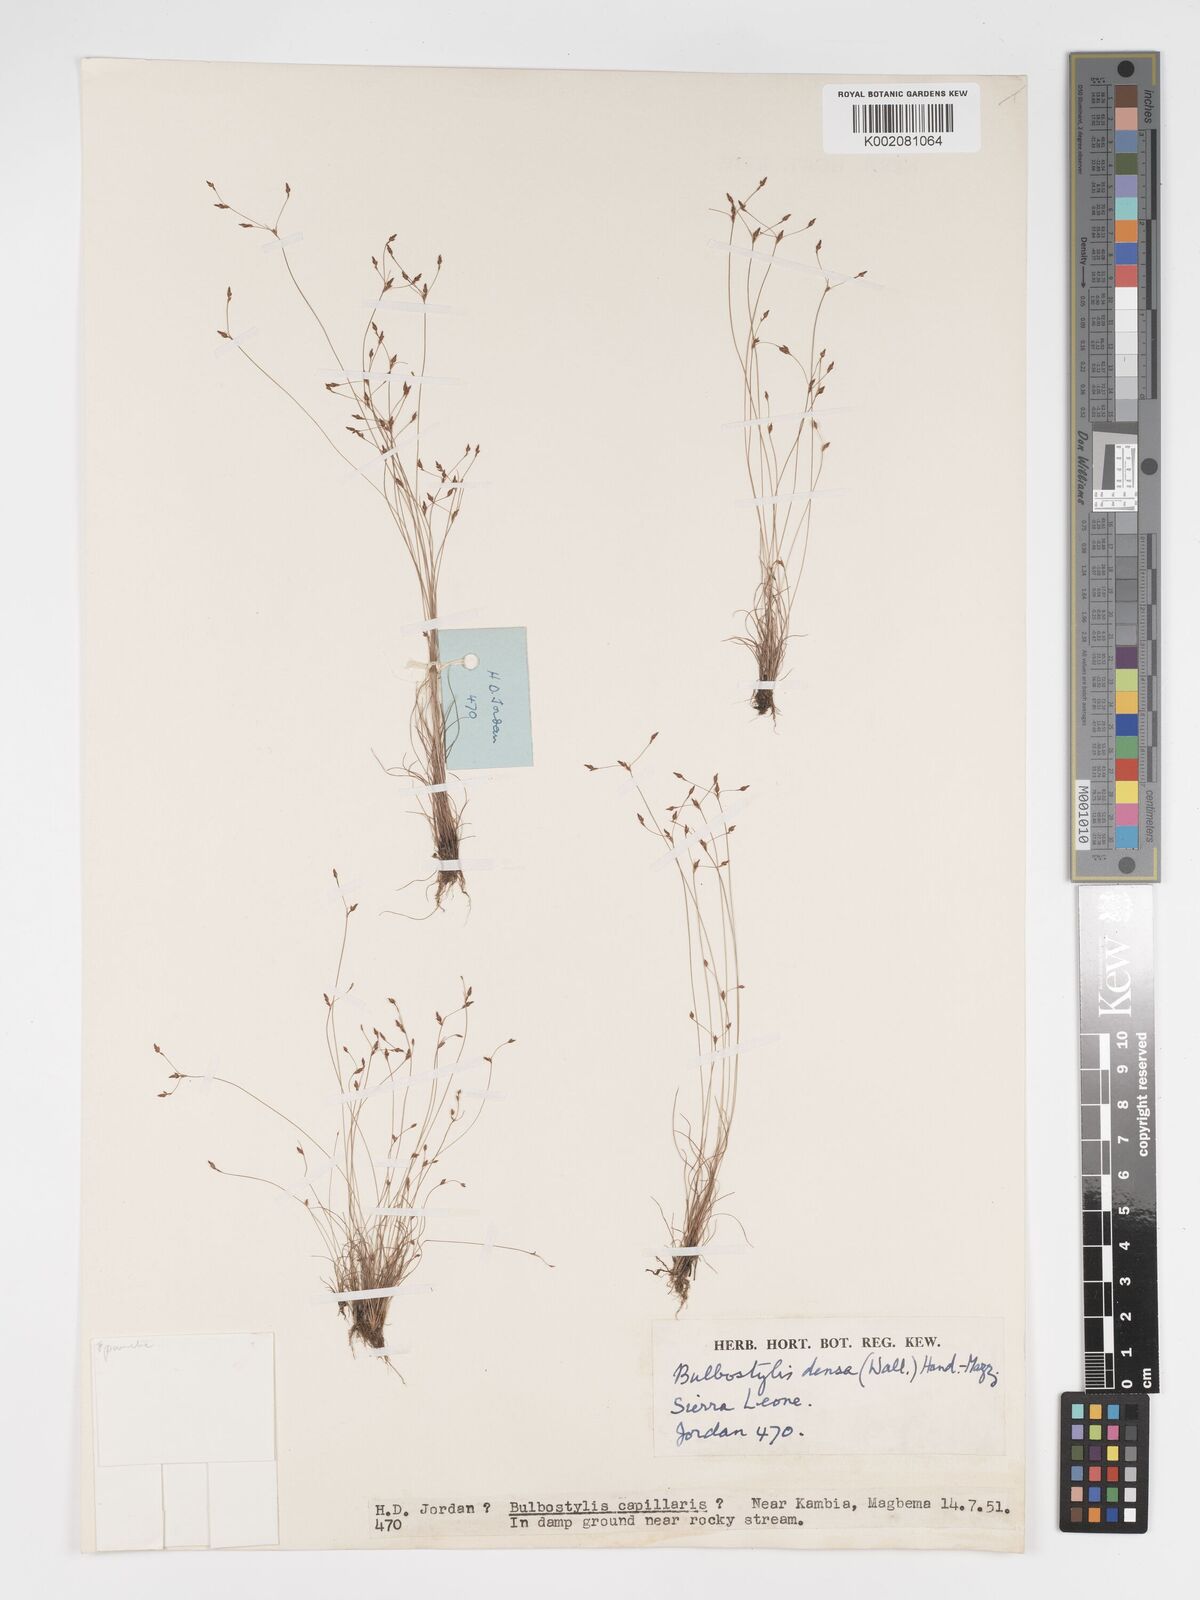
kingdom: Plantae
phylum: Tracheophyta
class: Liliopsida
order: Poales
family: Cyperaceae
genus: Bulbostylis
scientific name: Bulbostylis densa
